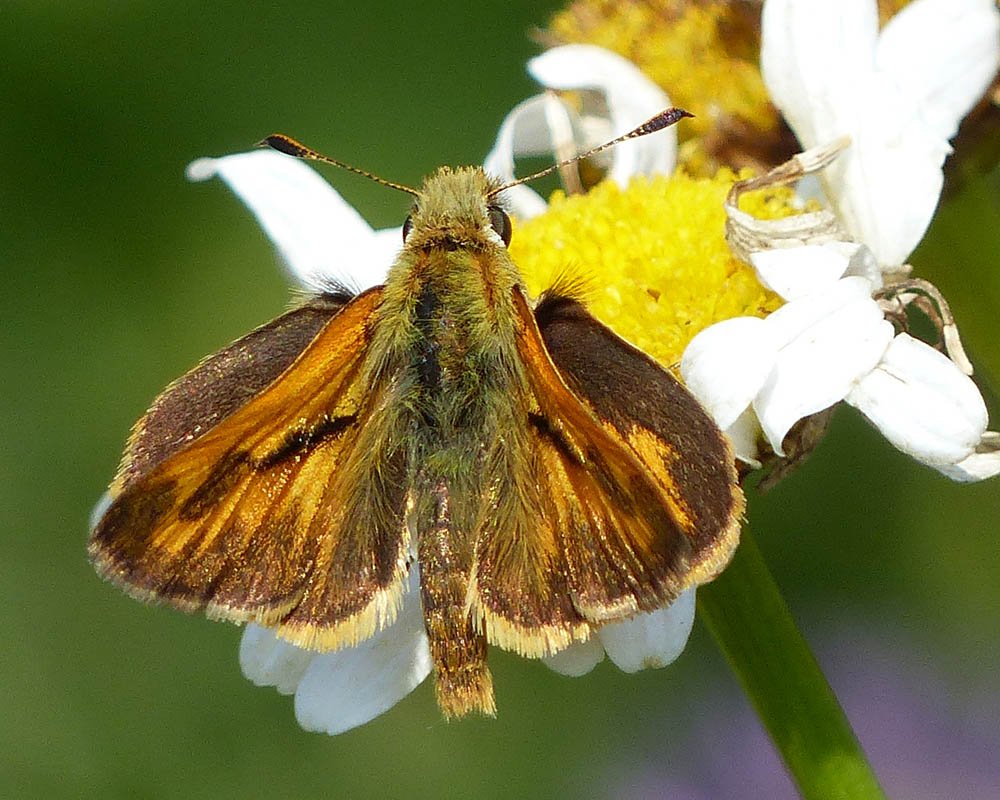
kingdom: Animalia
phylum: Arthropoda
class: Insecta
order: Lepidoptera
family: Hesperiidae
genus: Ochlodes
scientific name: Ochlodes sylvanoides
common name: Woodland Skipper
